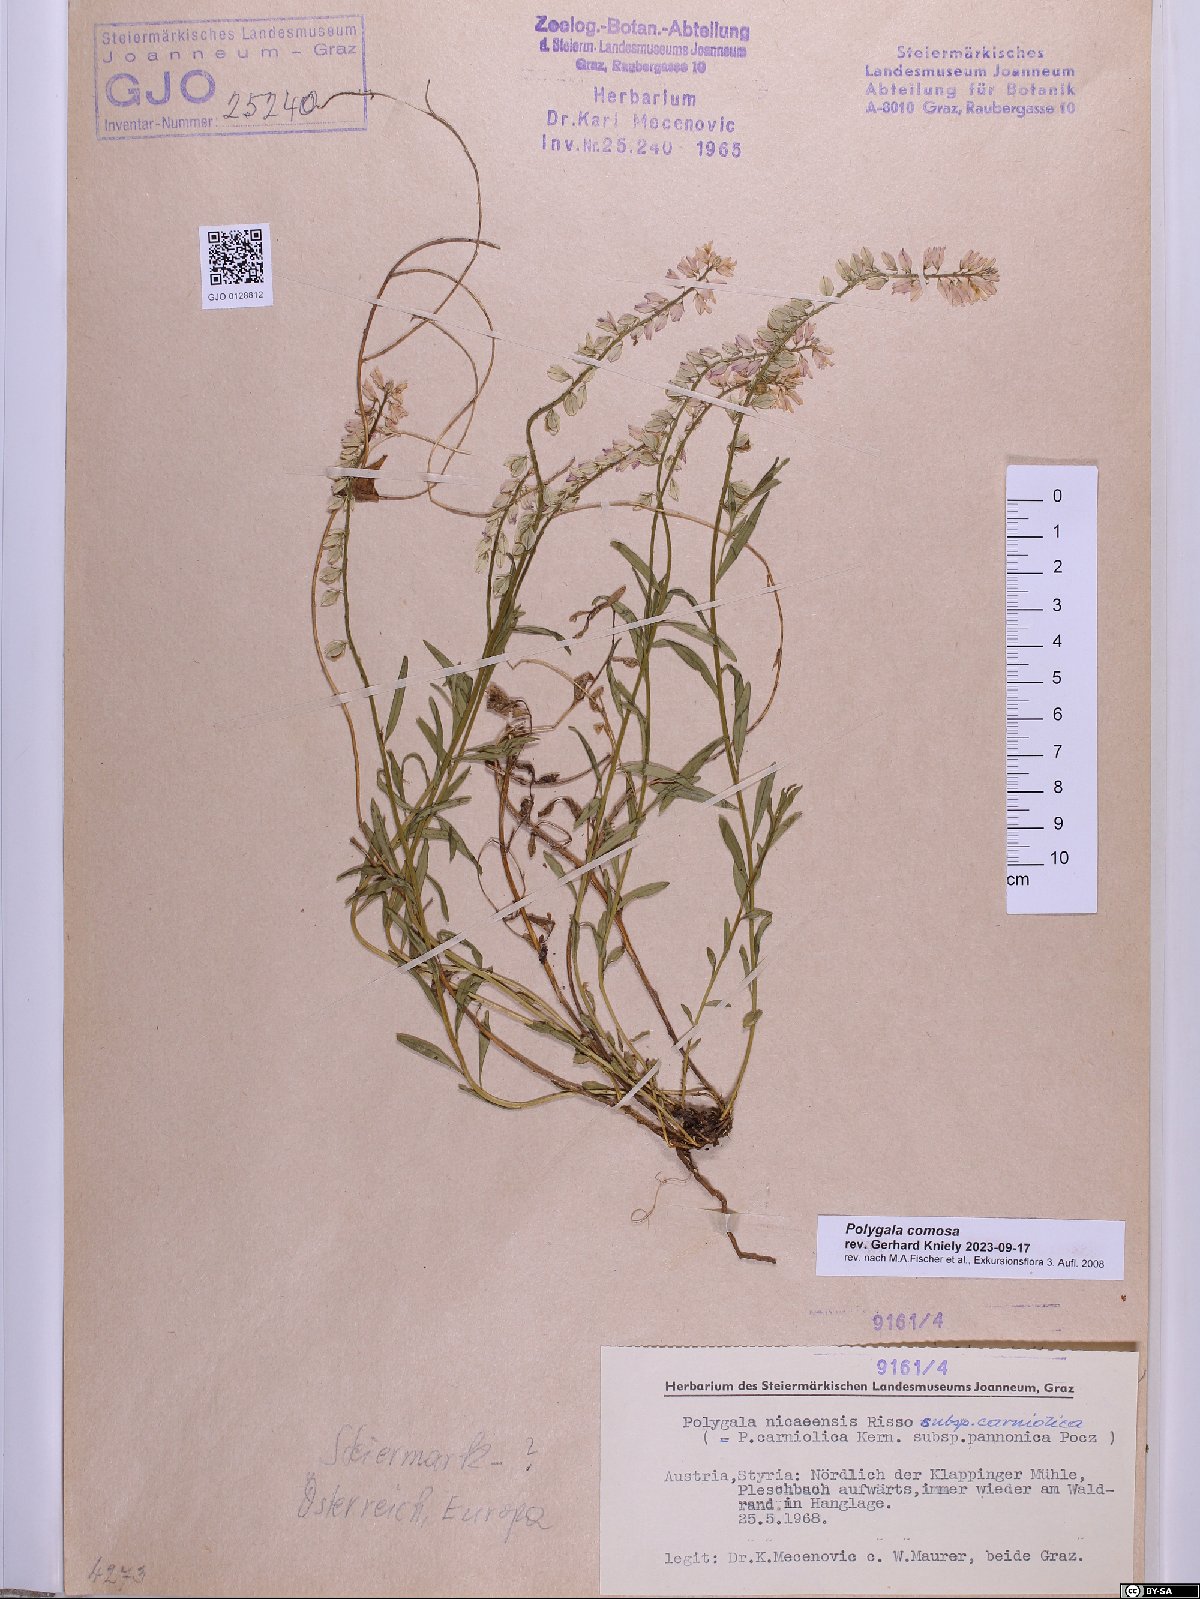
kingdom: Plantae
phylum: Tracheophyta
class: Magnoliopsida
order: Fabales
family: Polygalaceae
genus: Polygala
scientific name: Polygala comosa
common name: Tufted milkwort
